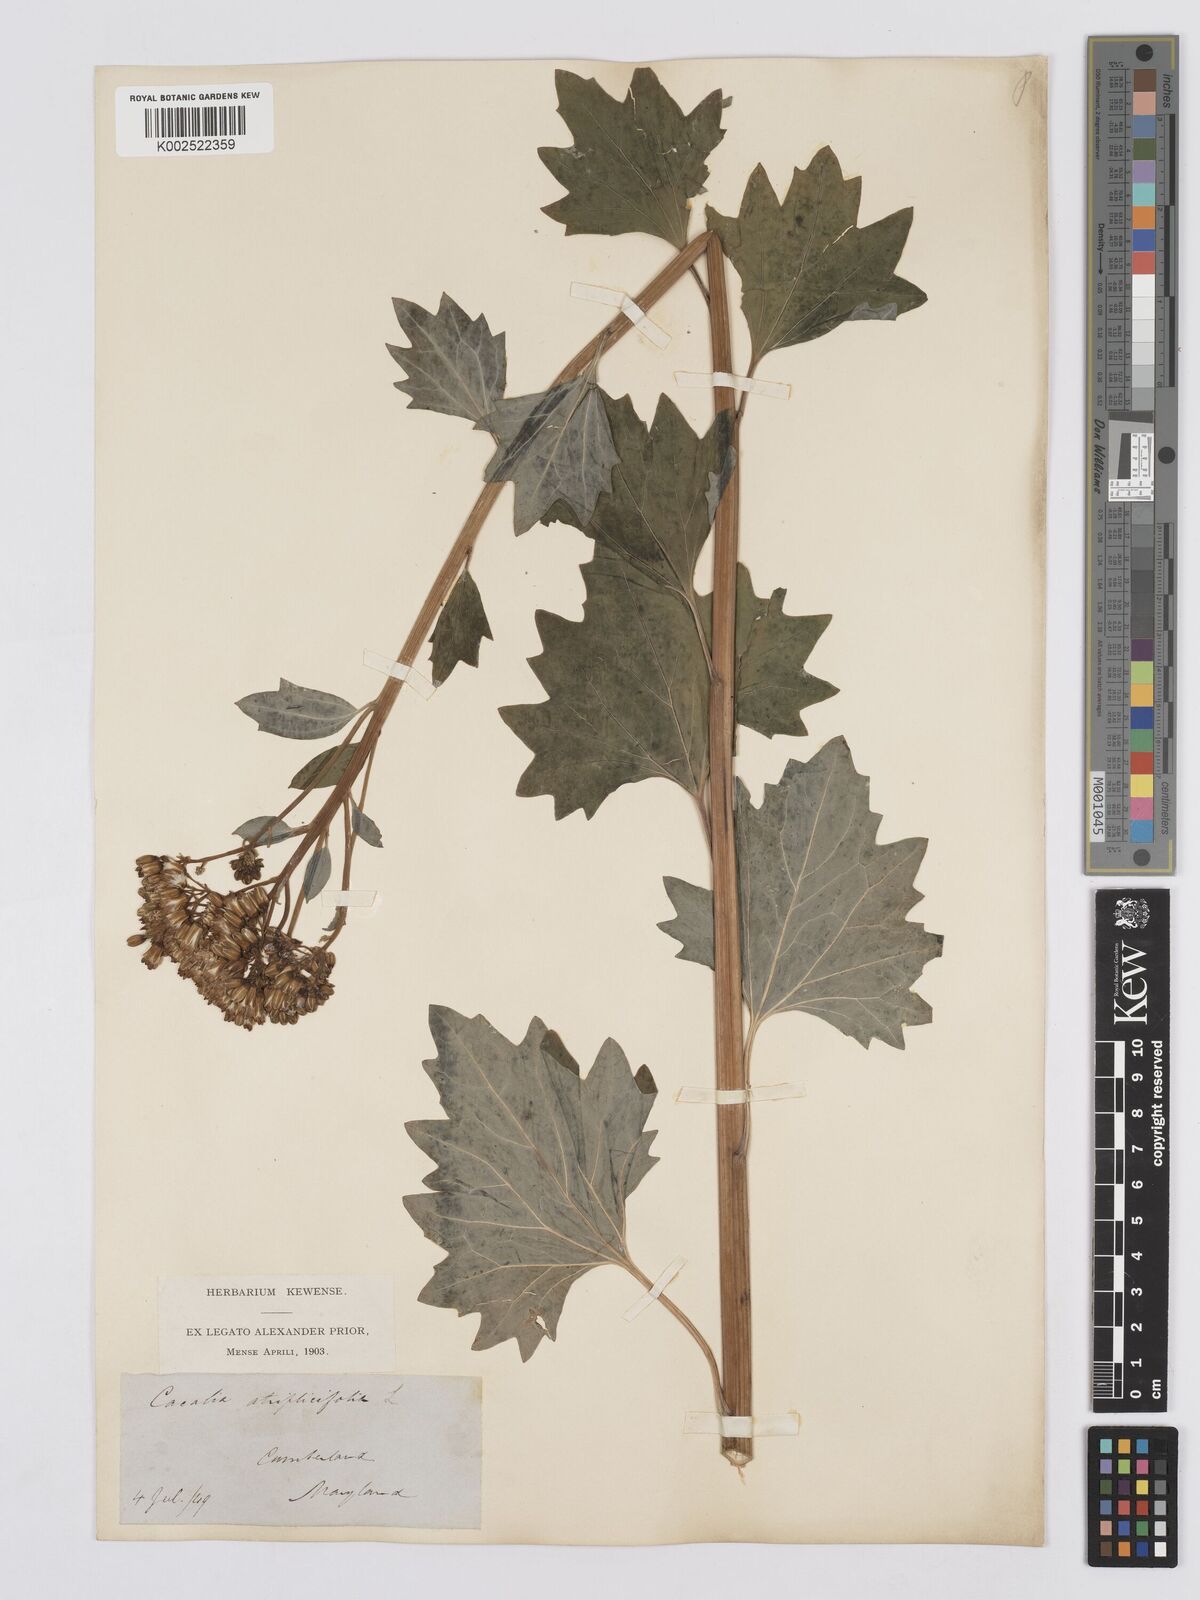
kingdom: Plantae
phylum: Tracheophyta
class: Magnoliopsida
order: Asterales
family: Asteraceae
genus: Arnoglossum
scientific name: Arnoglossum atriplicifolium
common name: Pale indian-plantain
